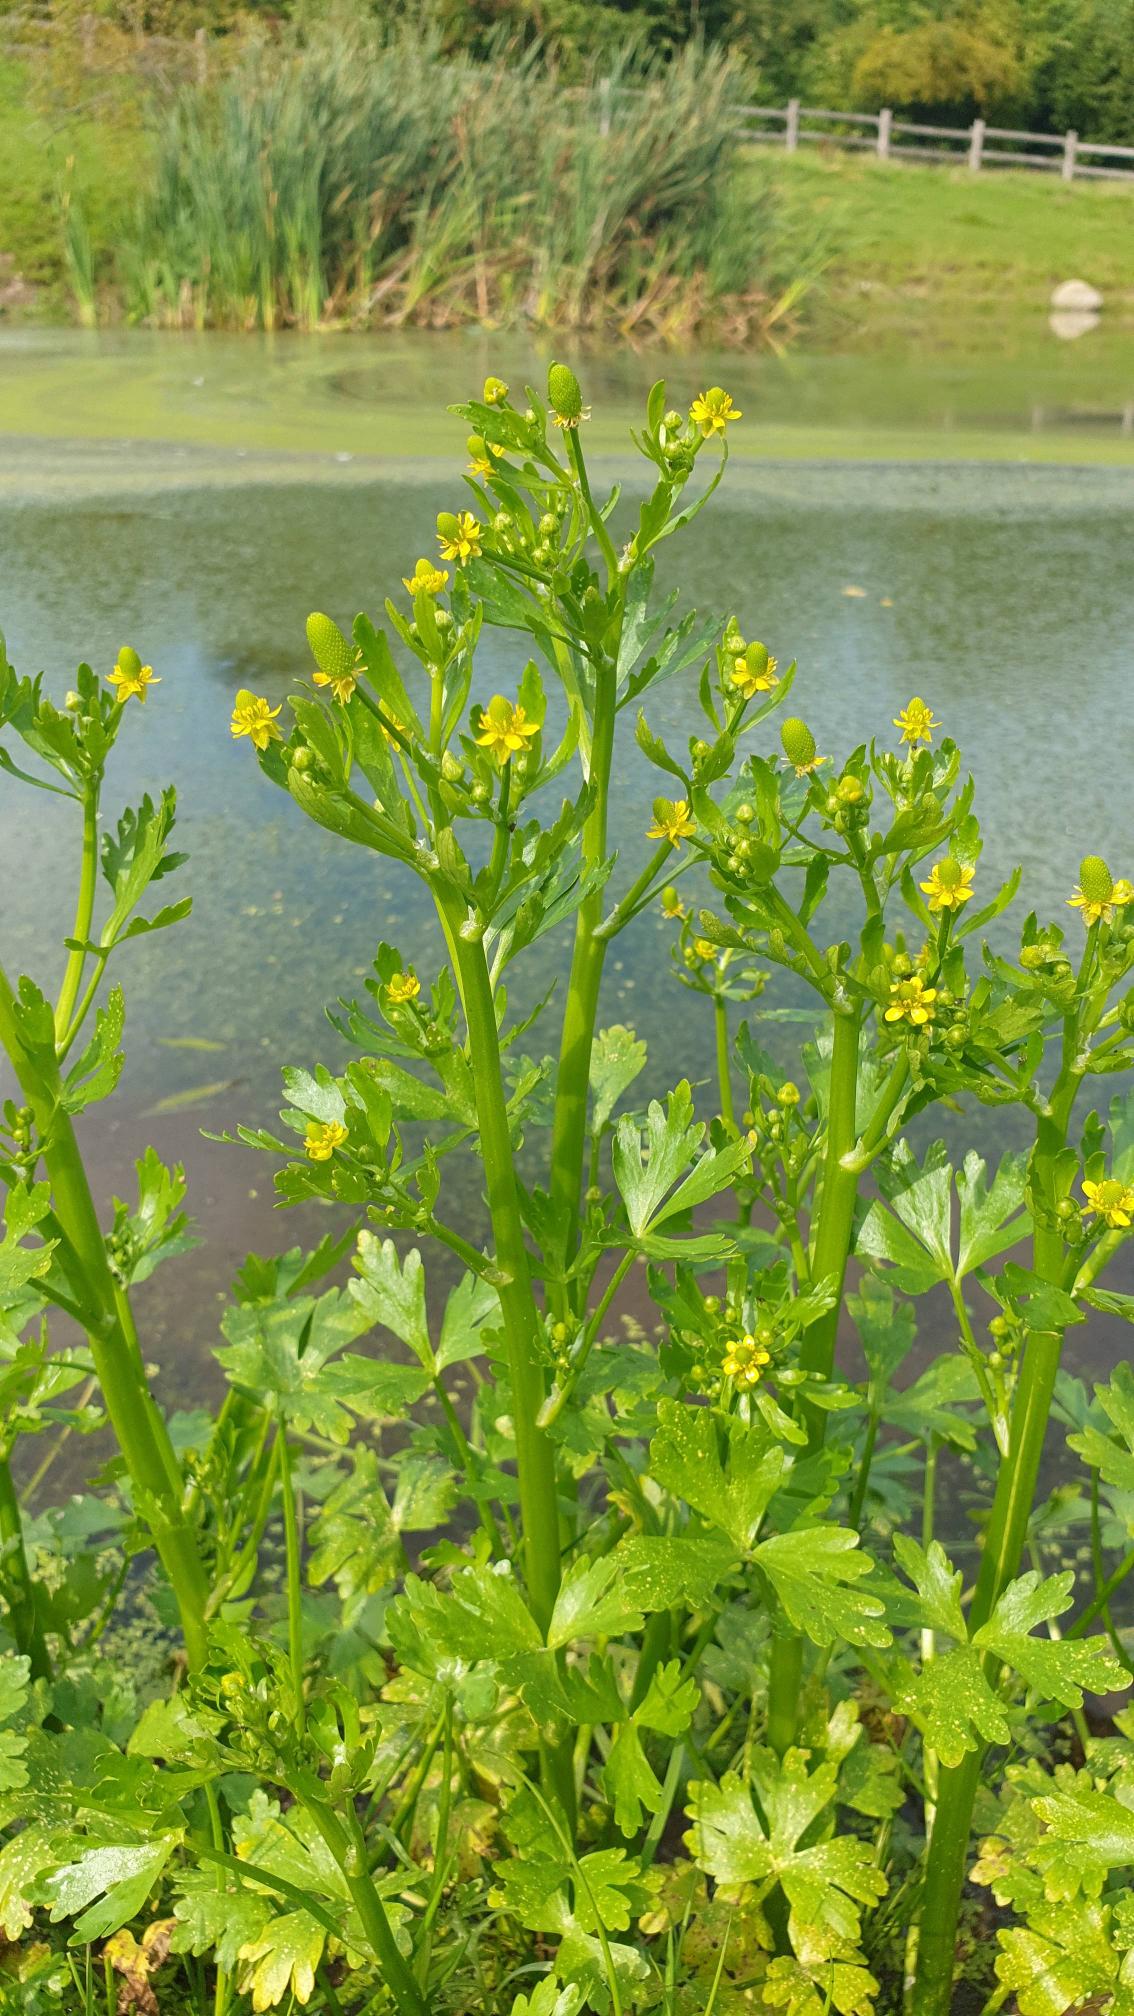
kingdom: Plantae
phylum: Tracheophyta
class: Magnoliopsida
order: Ranunculales
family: Ranunculaceae
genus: Ranunculus
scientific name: Ranunculus sceleratus
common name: Tigger-ranunkel
